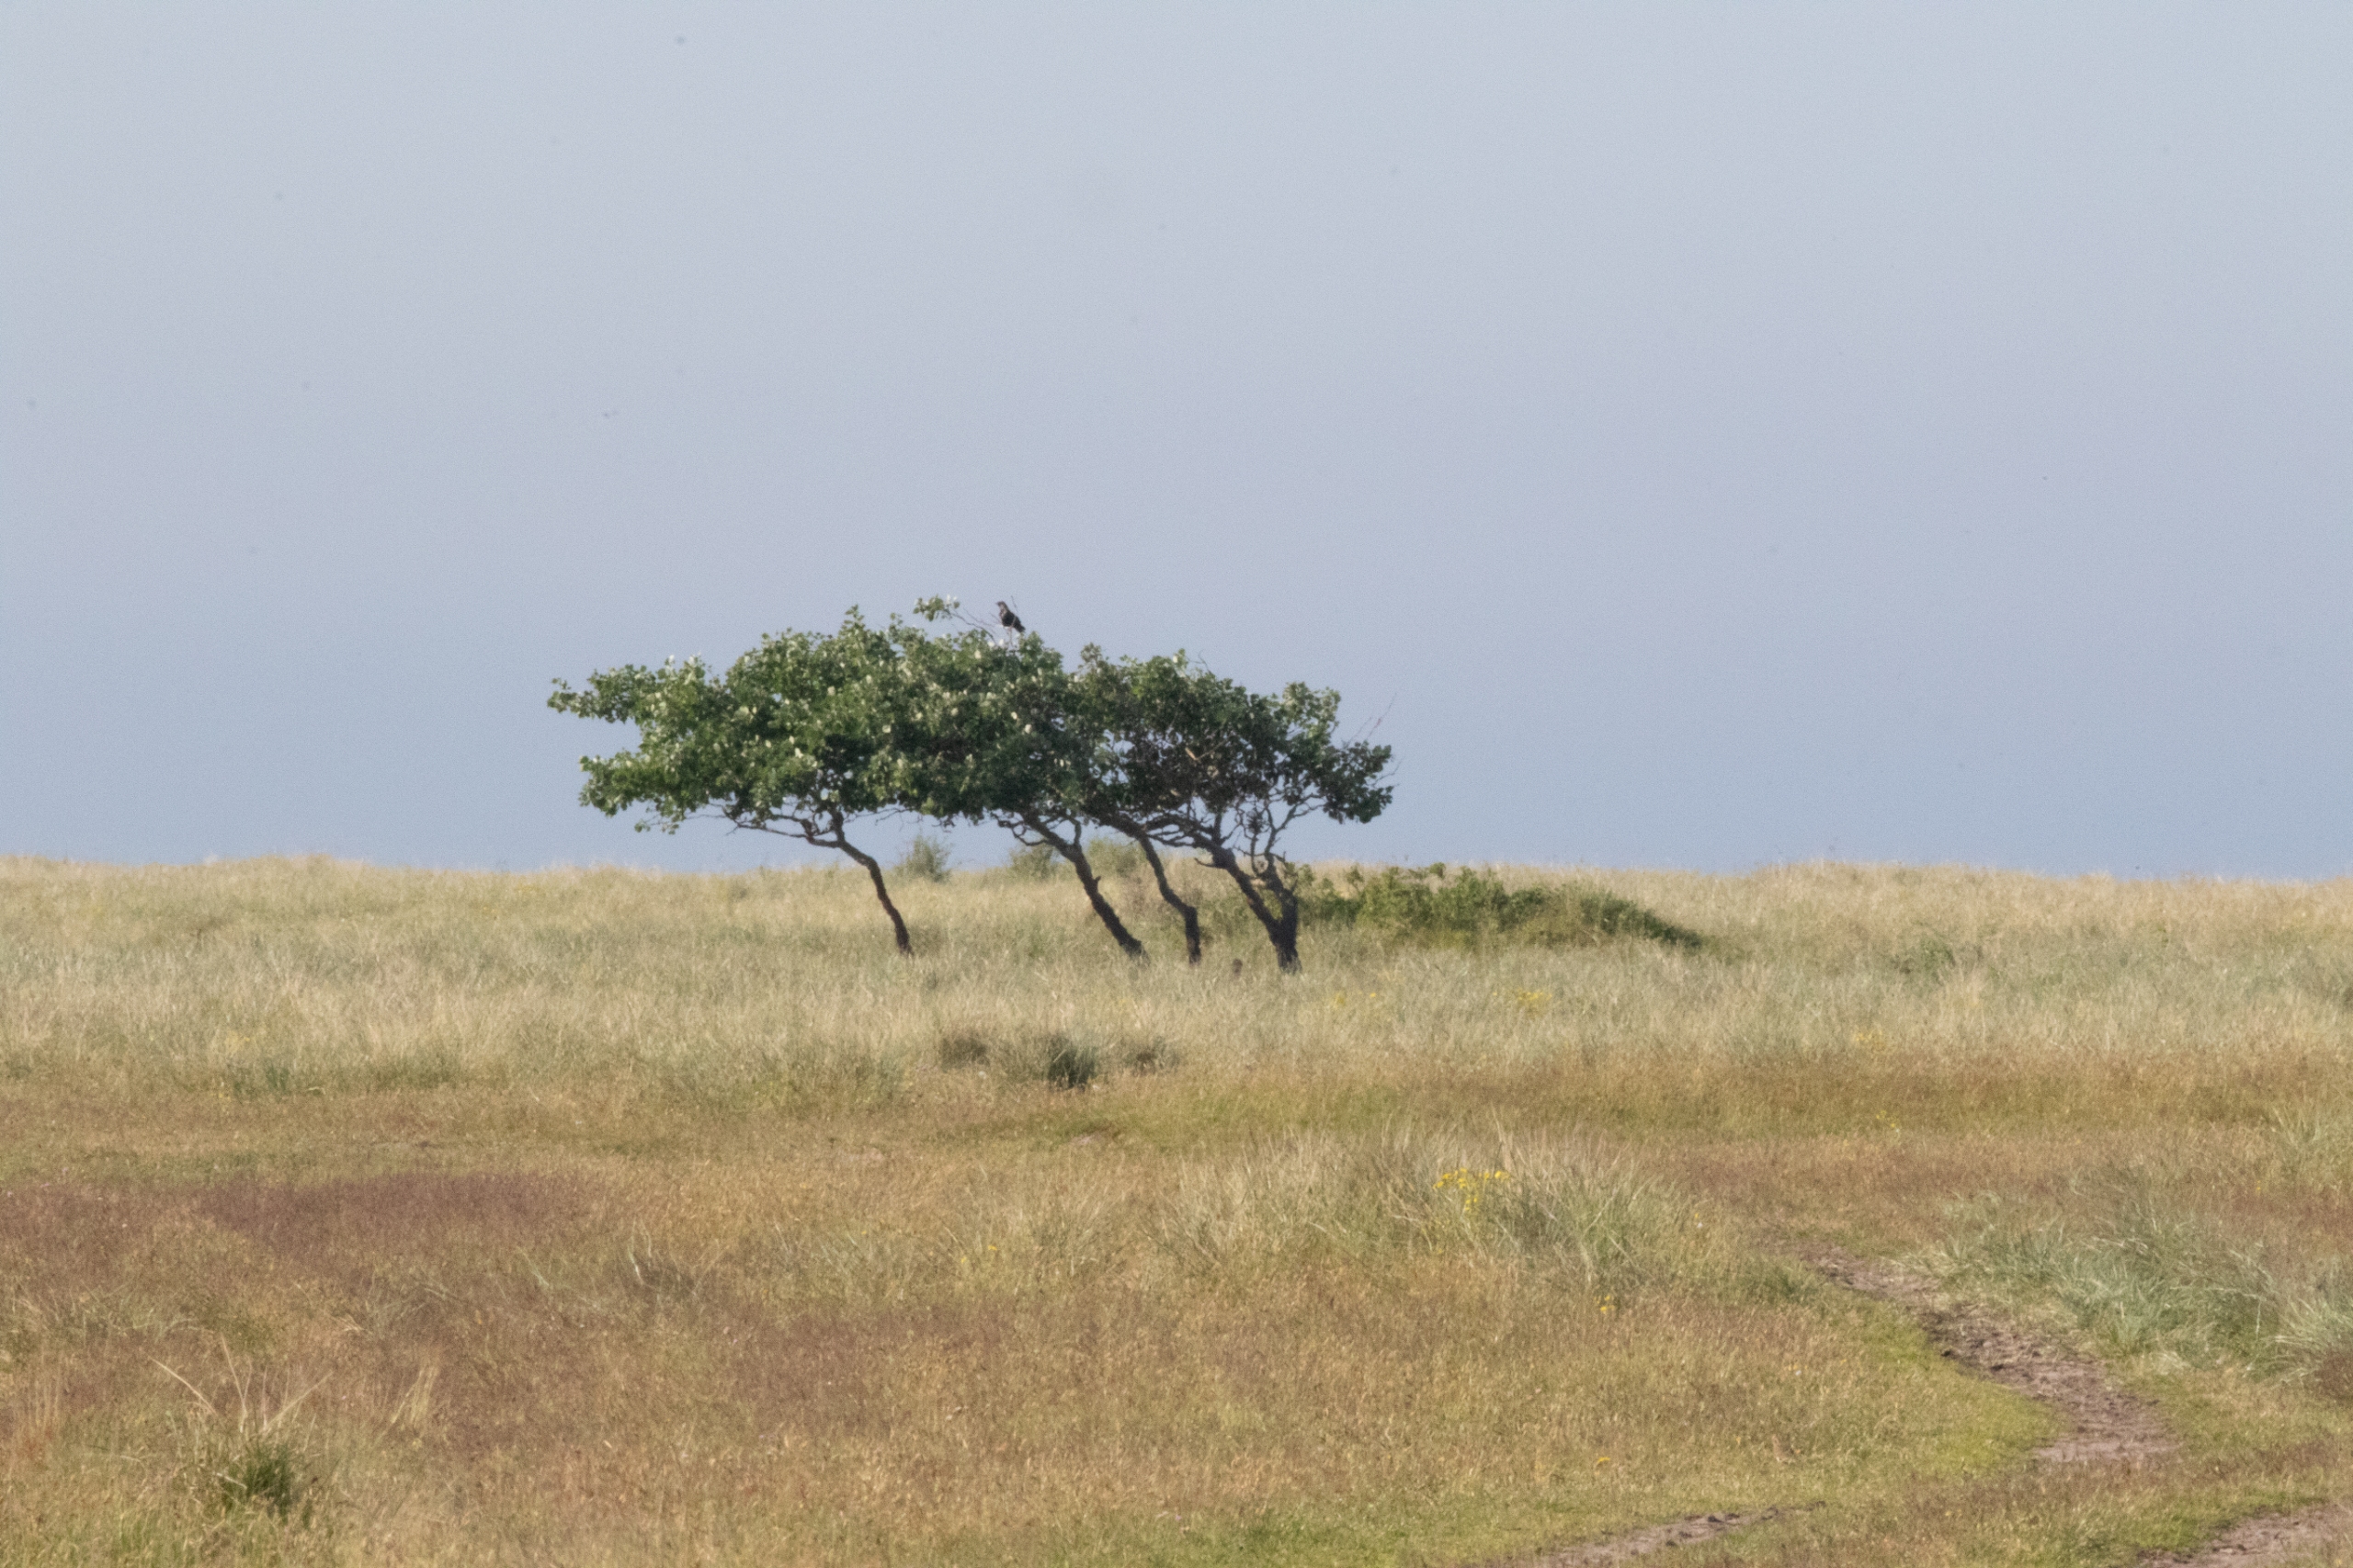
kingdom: Animalia
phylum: Chordata
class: Aves
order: Passeriformes
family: Corvidae
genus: Corvus
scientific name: Corvus cornix
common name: Gråkrage
